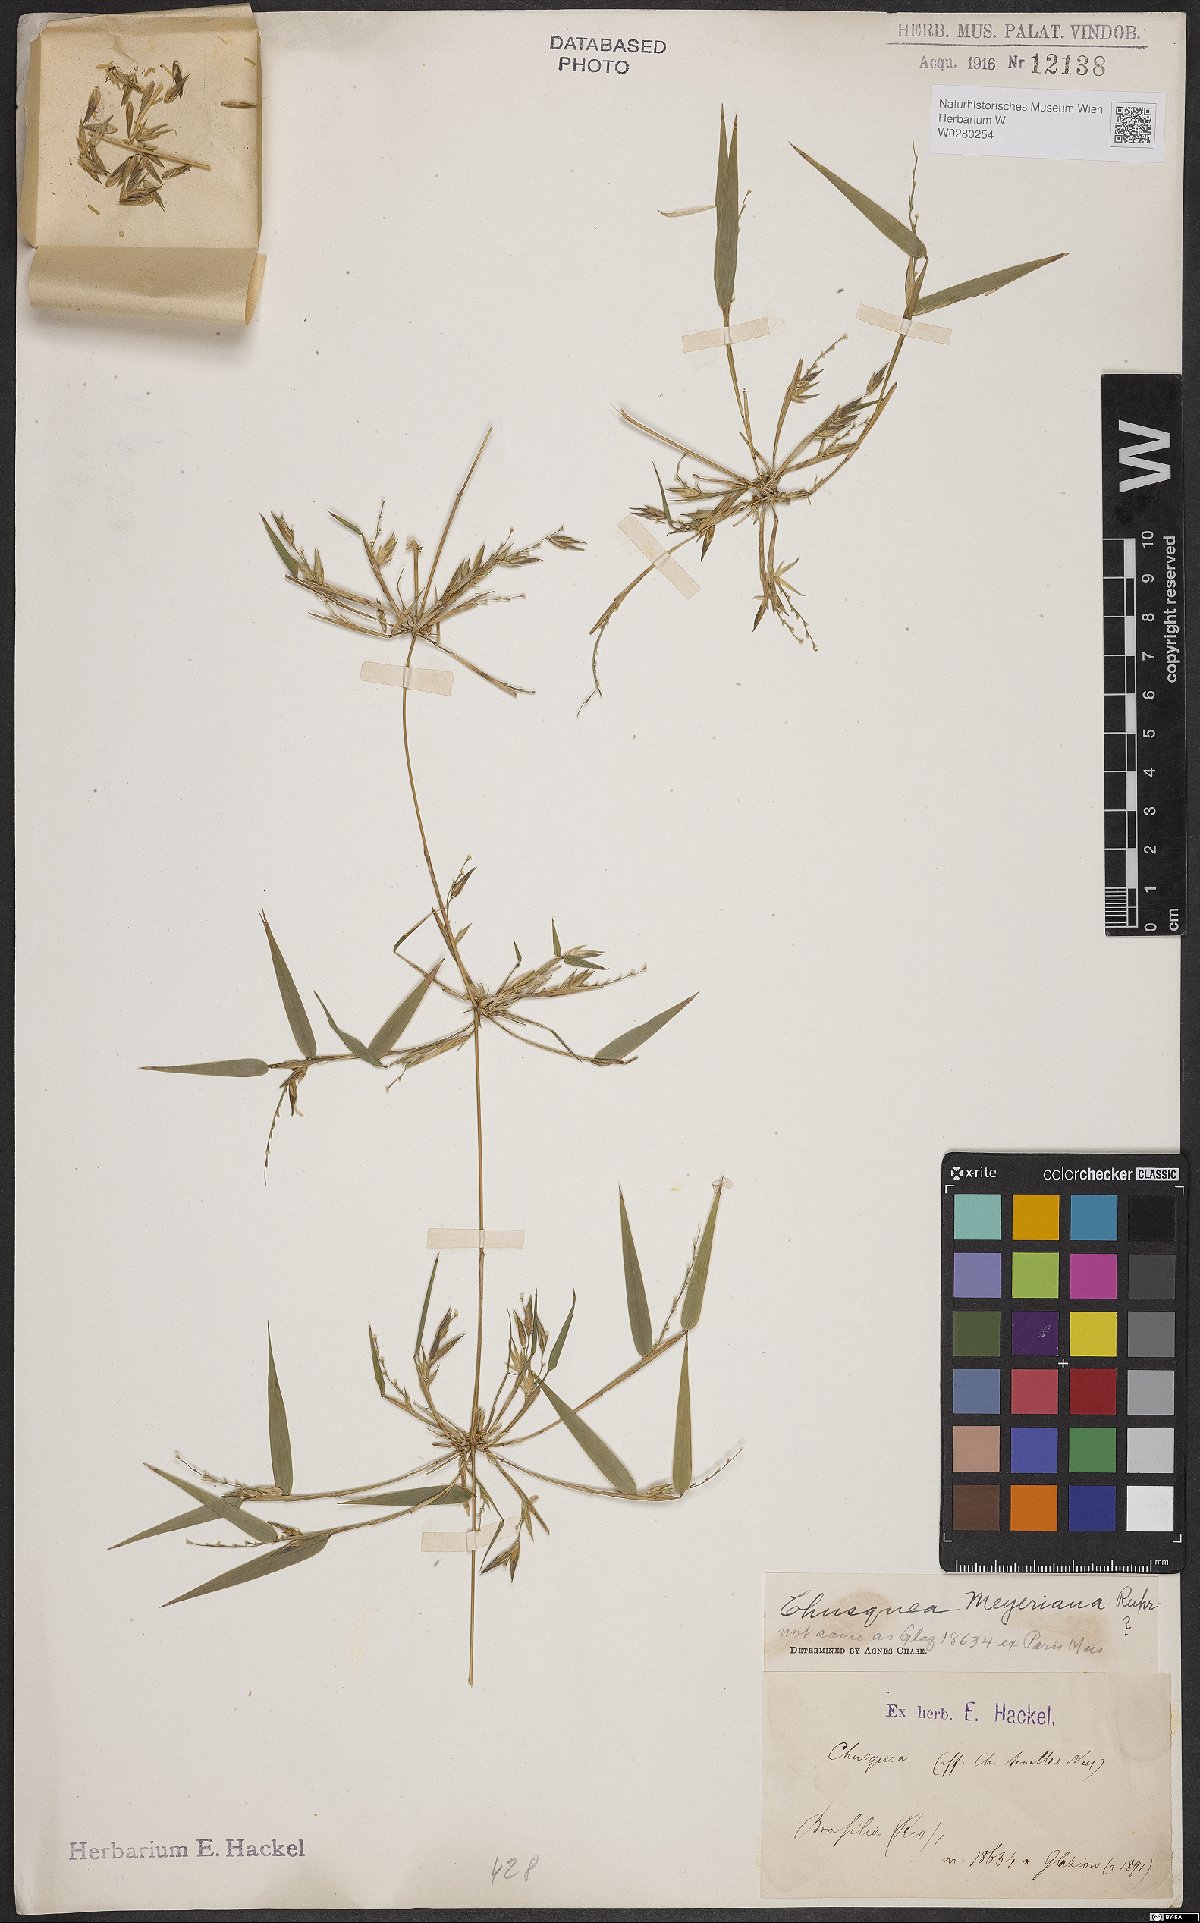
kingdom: Plantae
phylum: Tracheophyta
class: Liliopsida
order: Poales
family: Poaceae
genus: Chusquea
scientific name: Chusquea meyeriana
